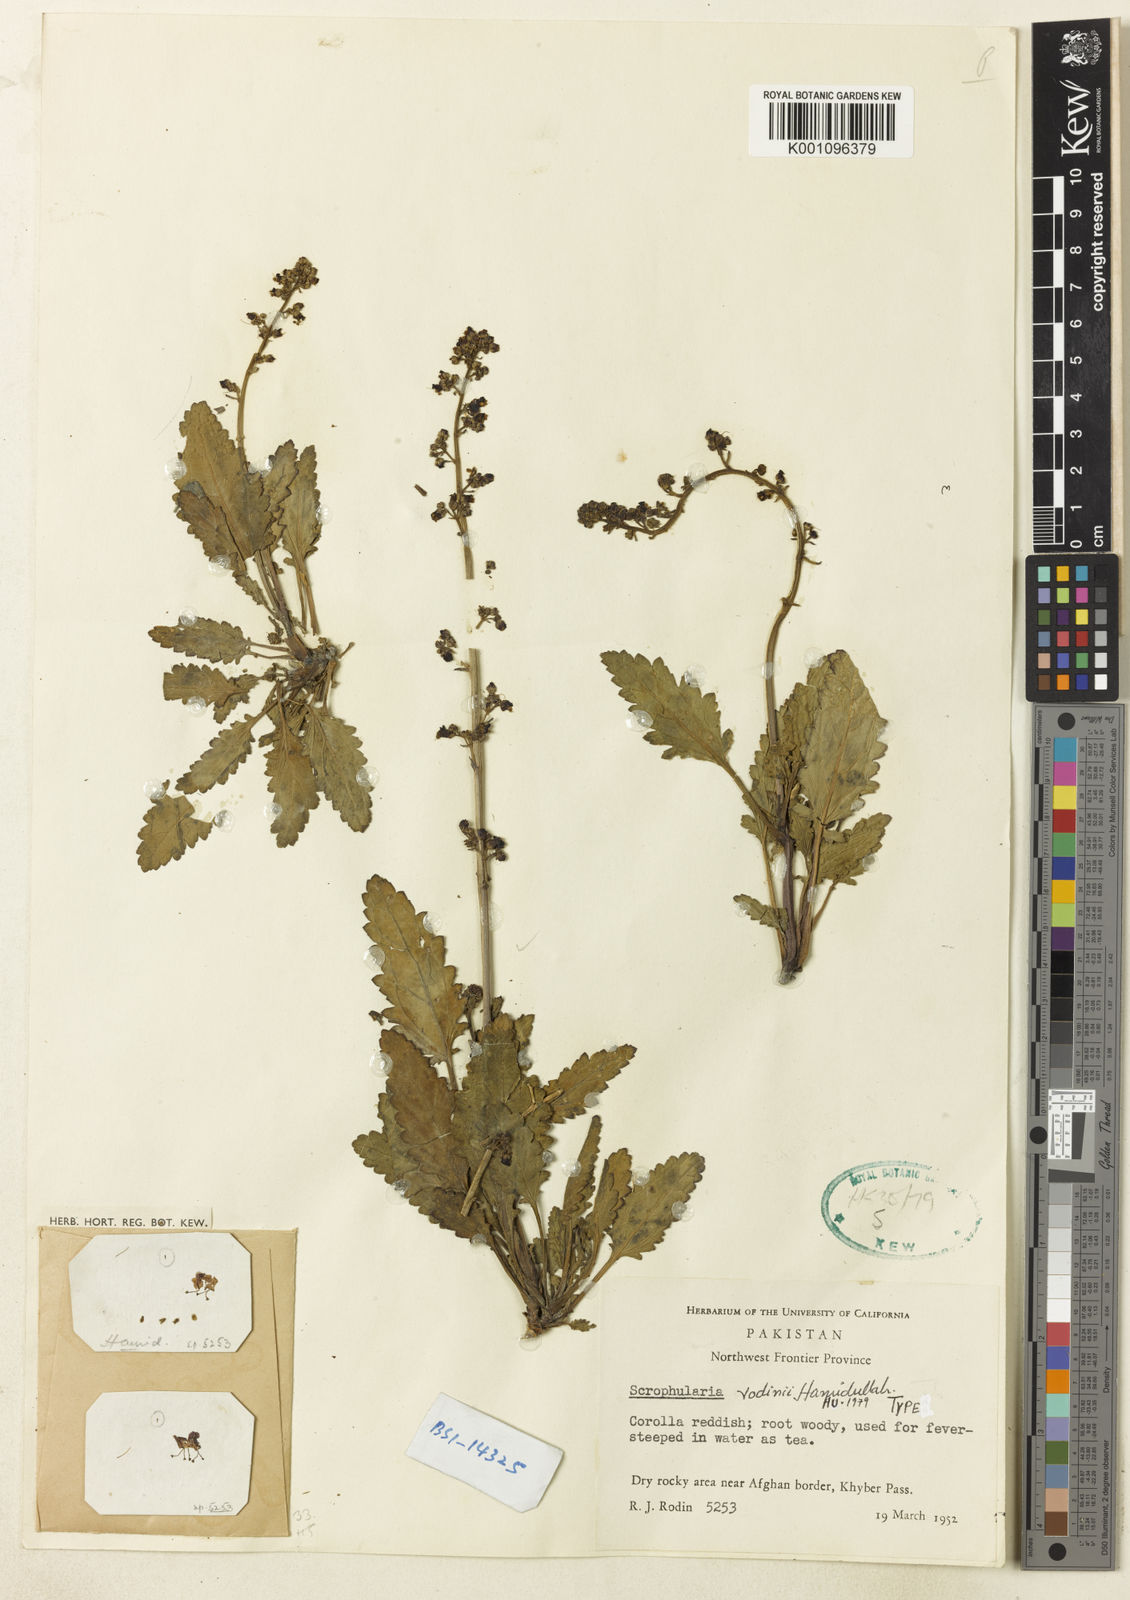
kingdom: Plantae
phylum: Tracheophyta
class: Magnoliopsida
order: Lamiales
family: Scrophulariaceae
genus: Scrophularia
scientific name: Scrophularia rodinii
